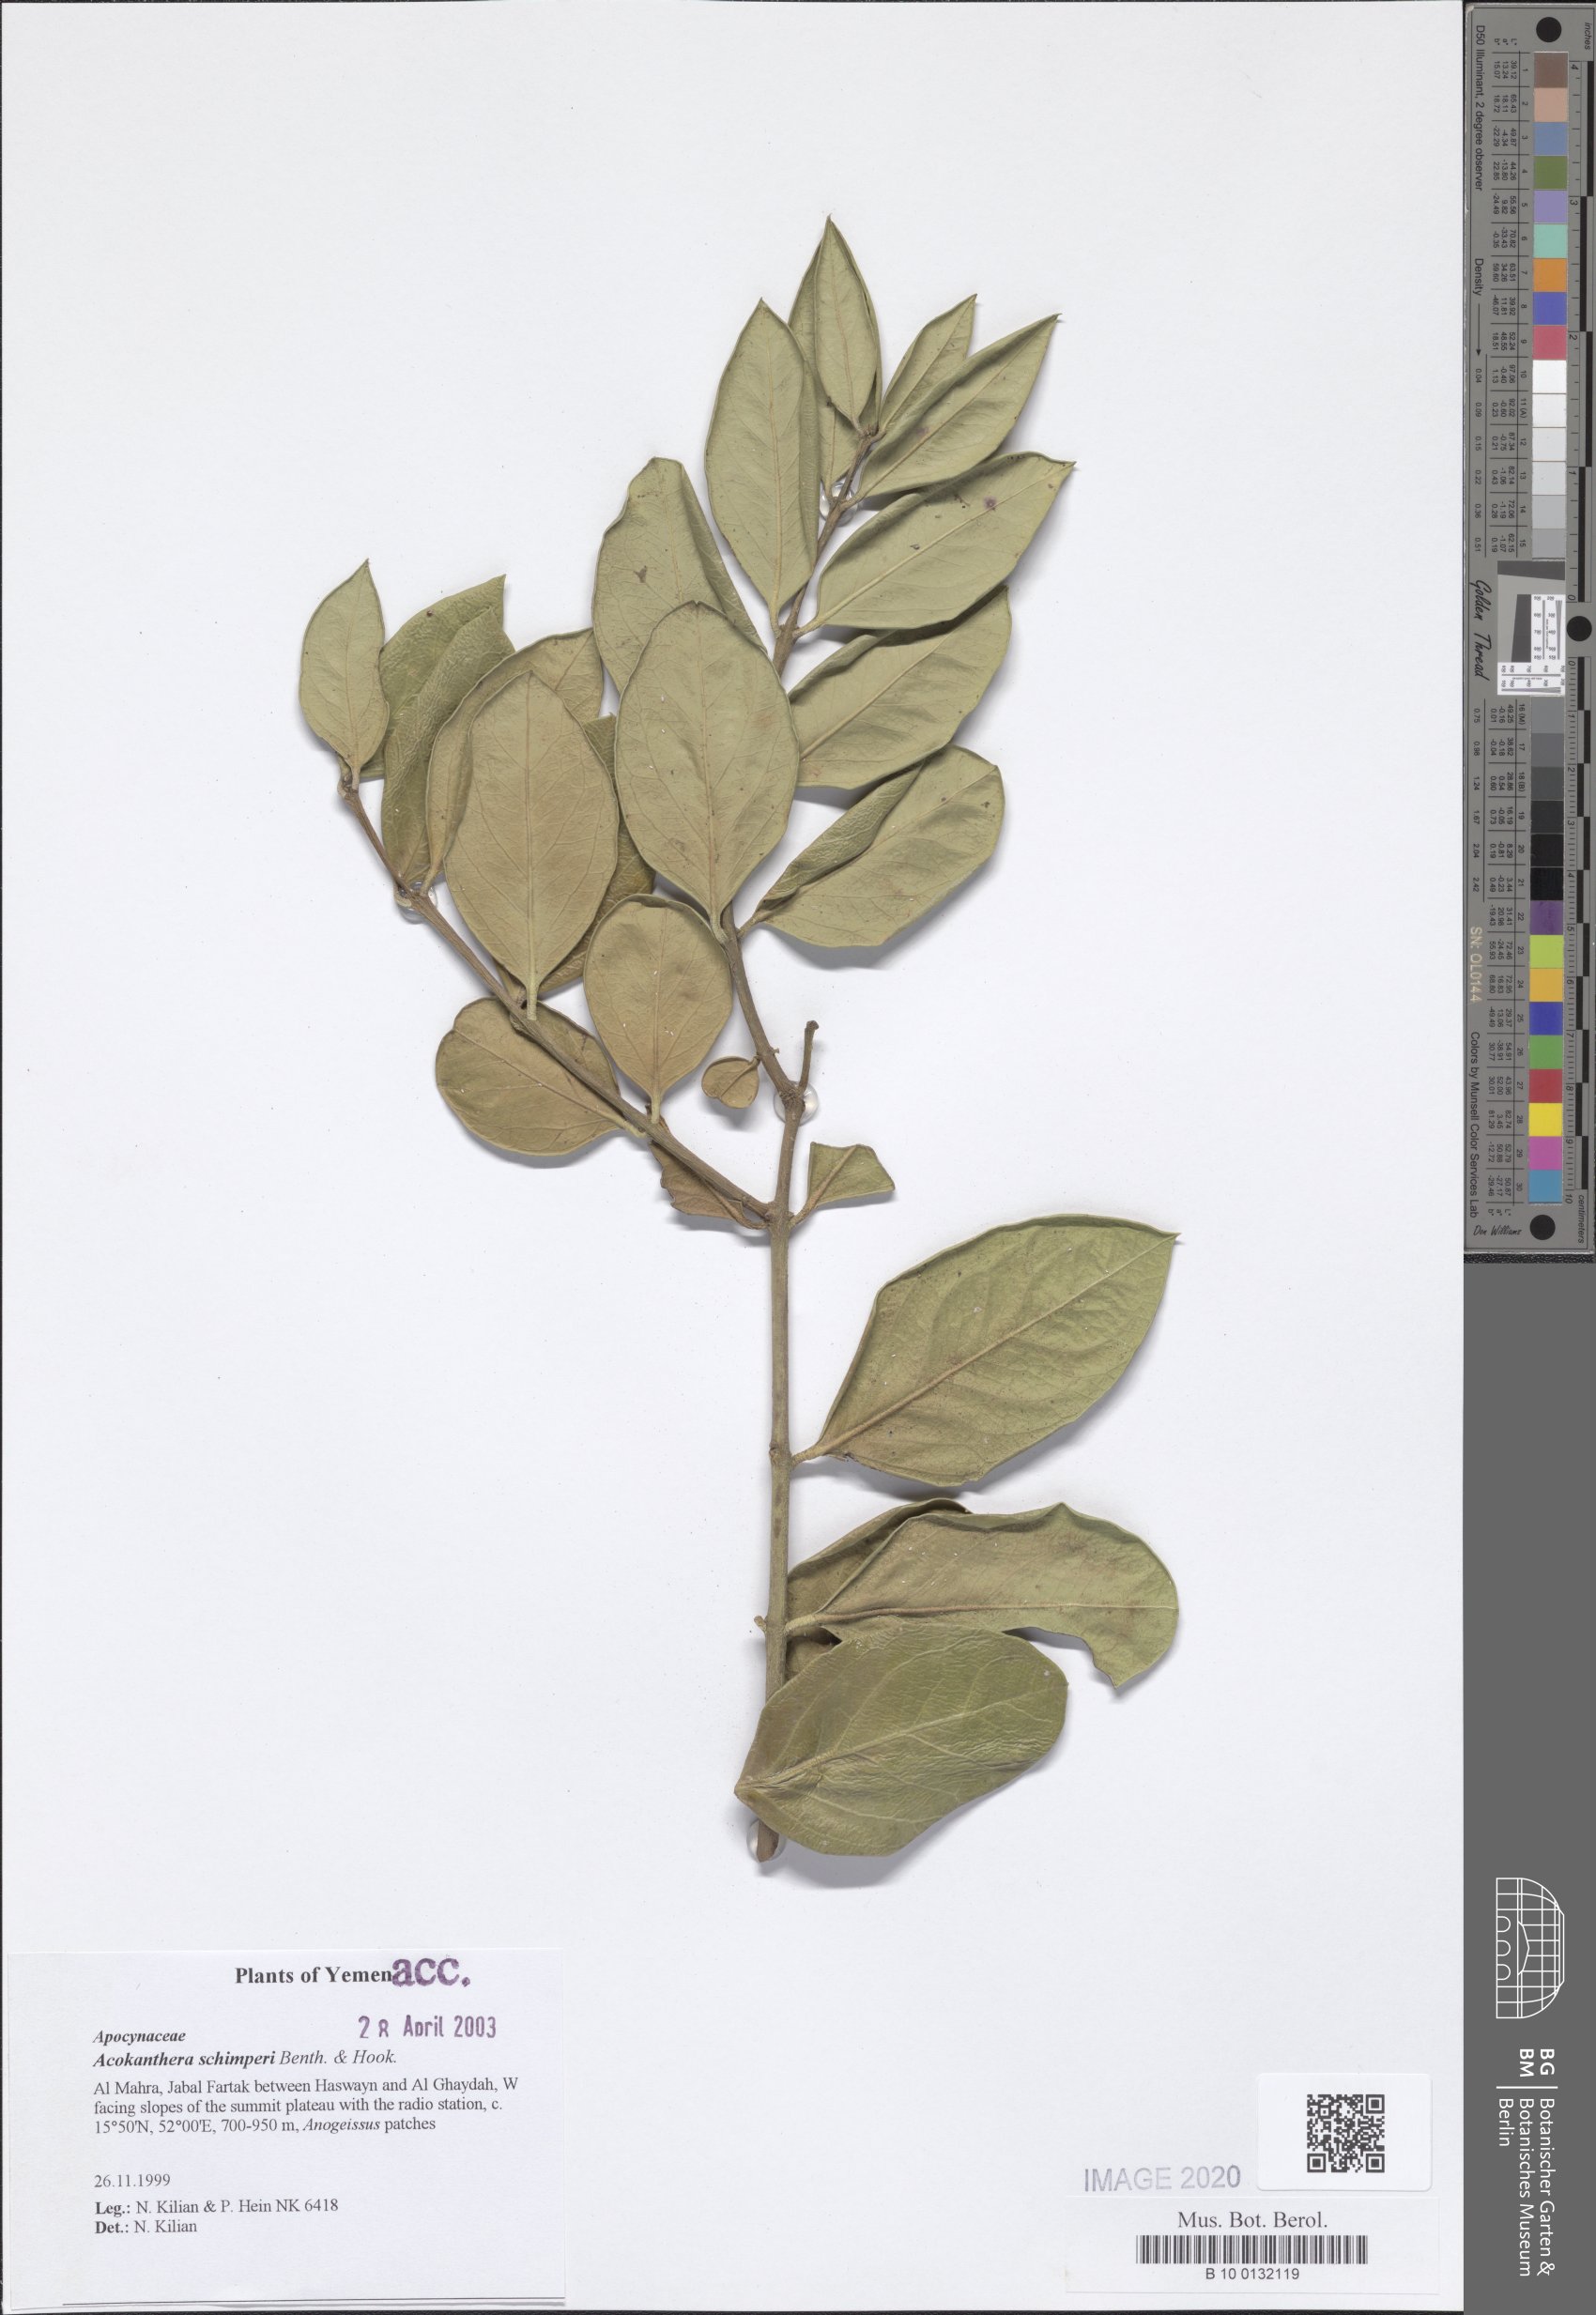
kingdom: Plantae
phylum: Tracheophyta
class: Magnoliopsida
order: Gentianales
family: Apocynaceae
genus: Acokanthera
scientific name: Acokanthera schimperi
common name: Arrow-poison-tree
